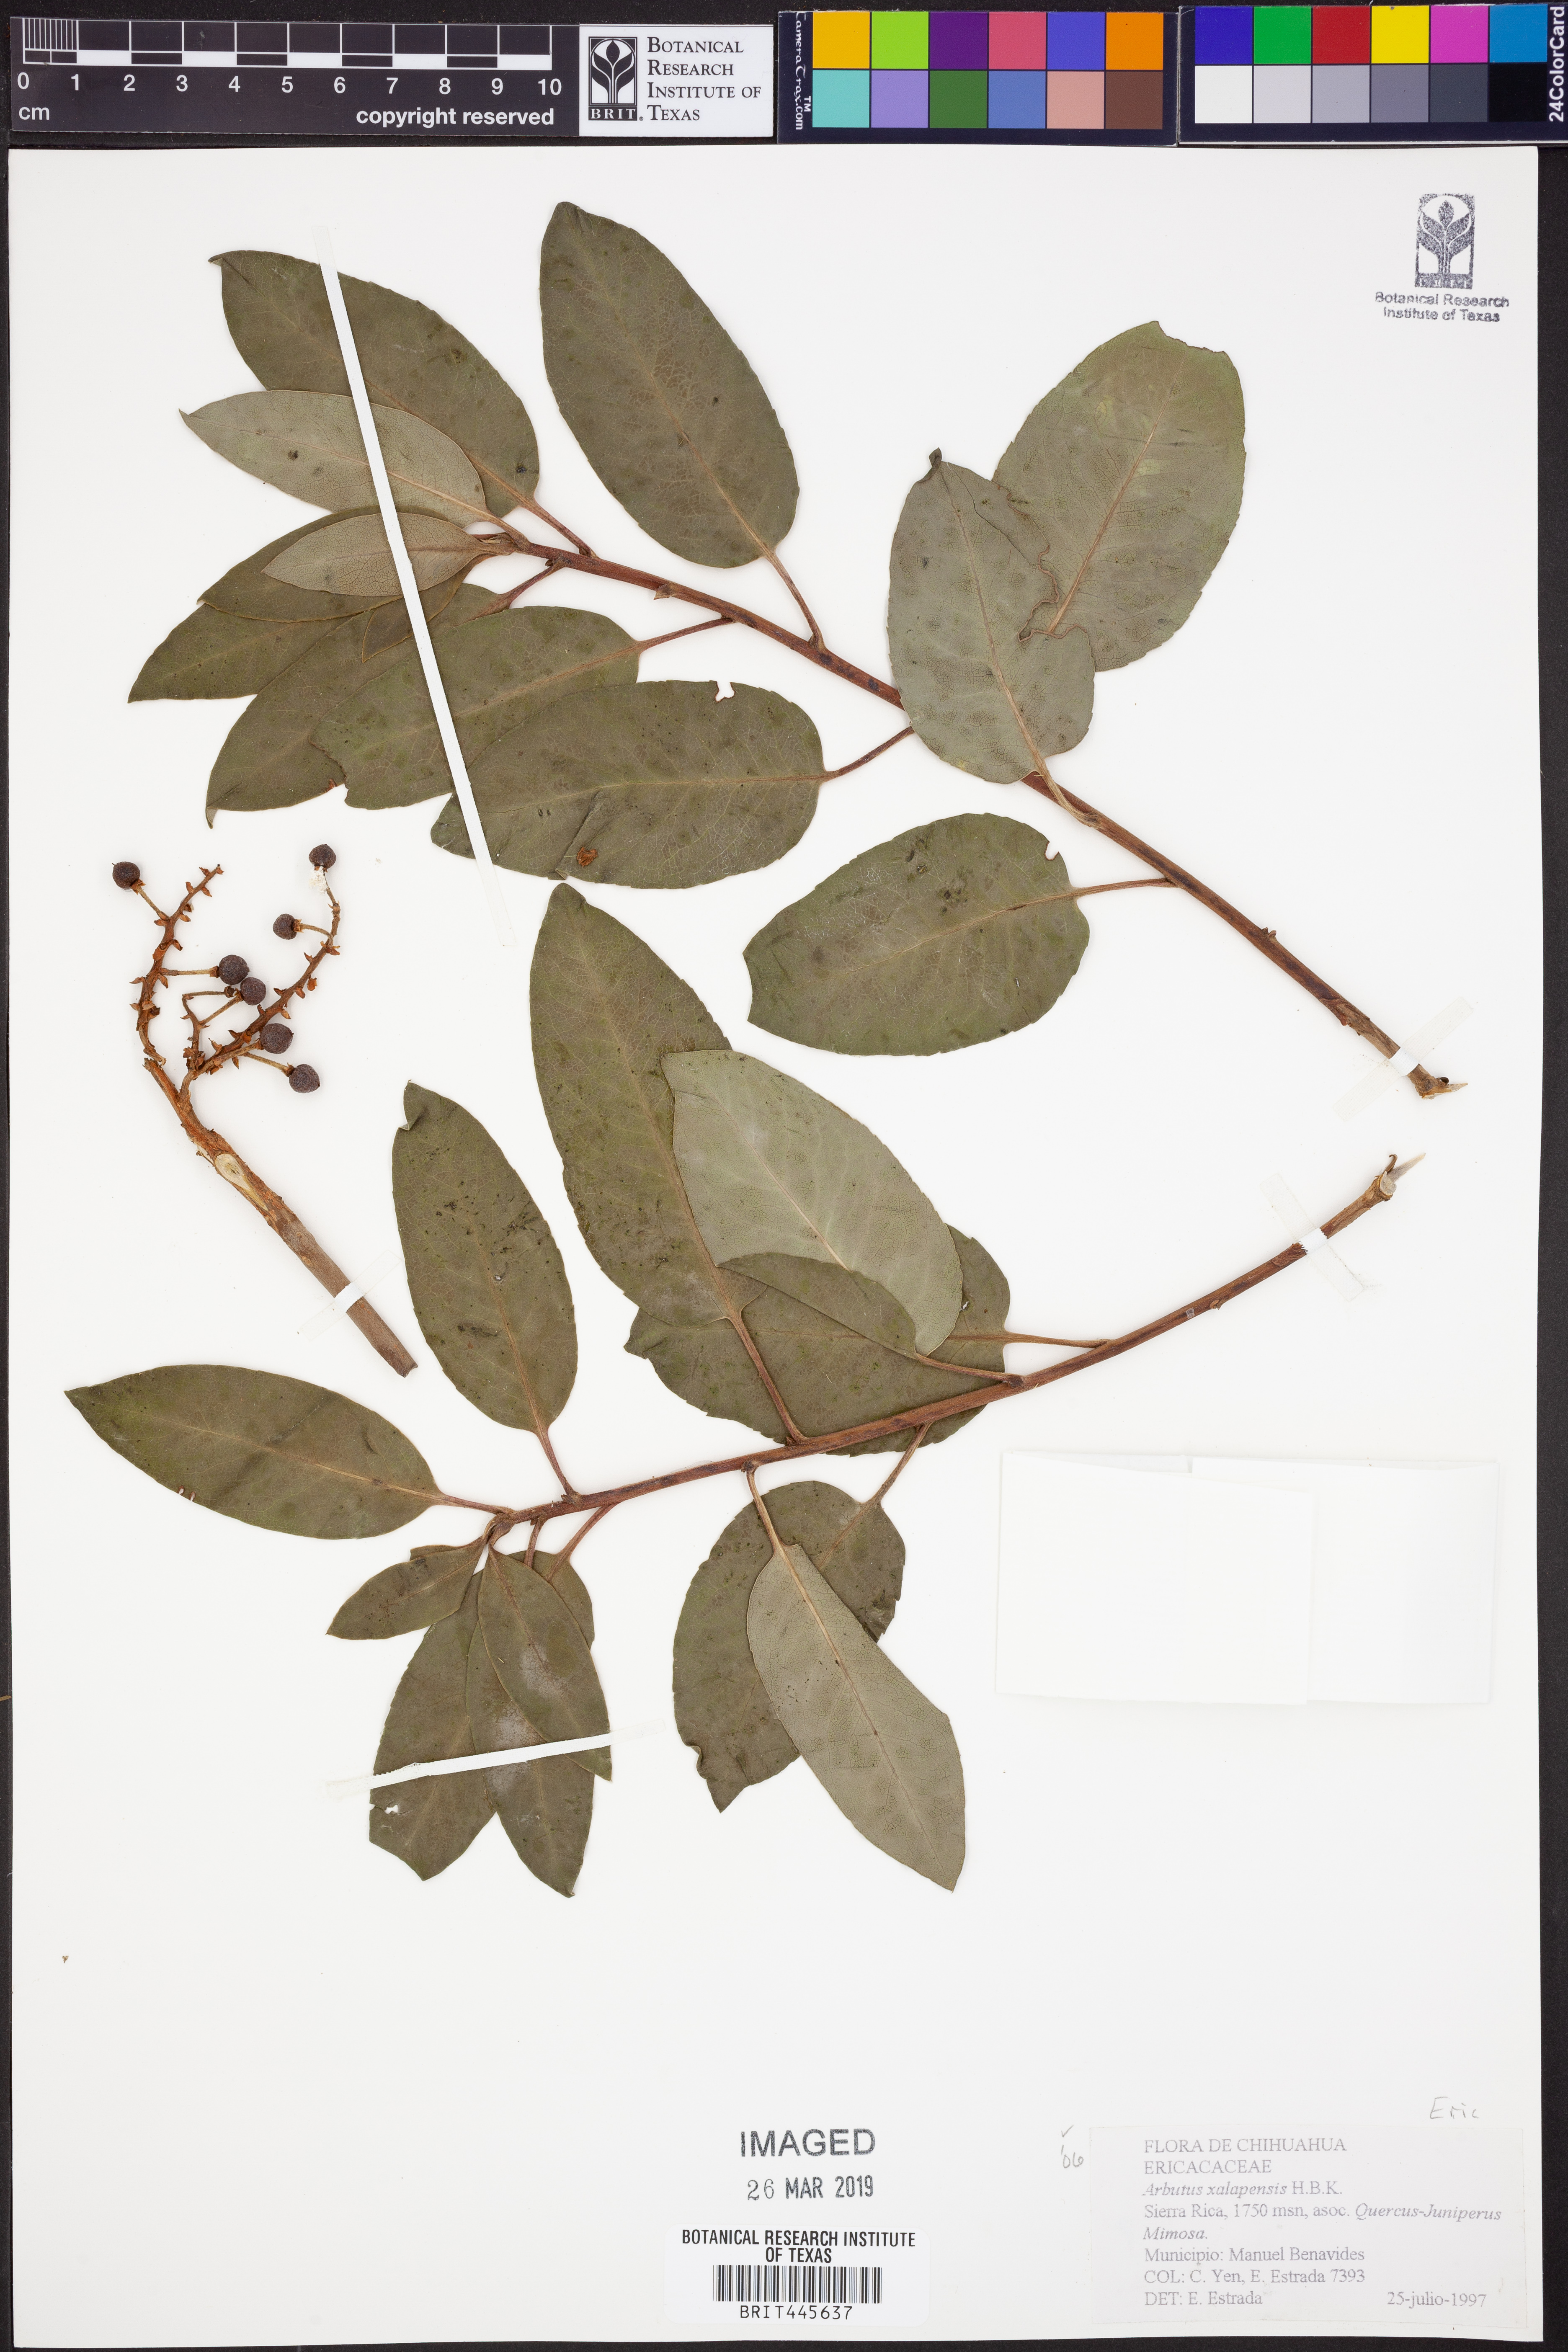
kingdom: Plantae
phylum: Tracheophyta
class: Magnoliopsida
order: Ericales
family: Ericaceae
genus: Arbutus
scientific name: Arbutus xalapensis
